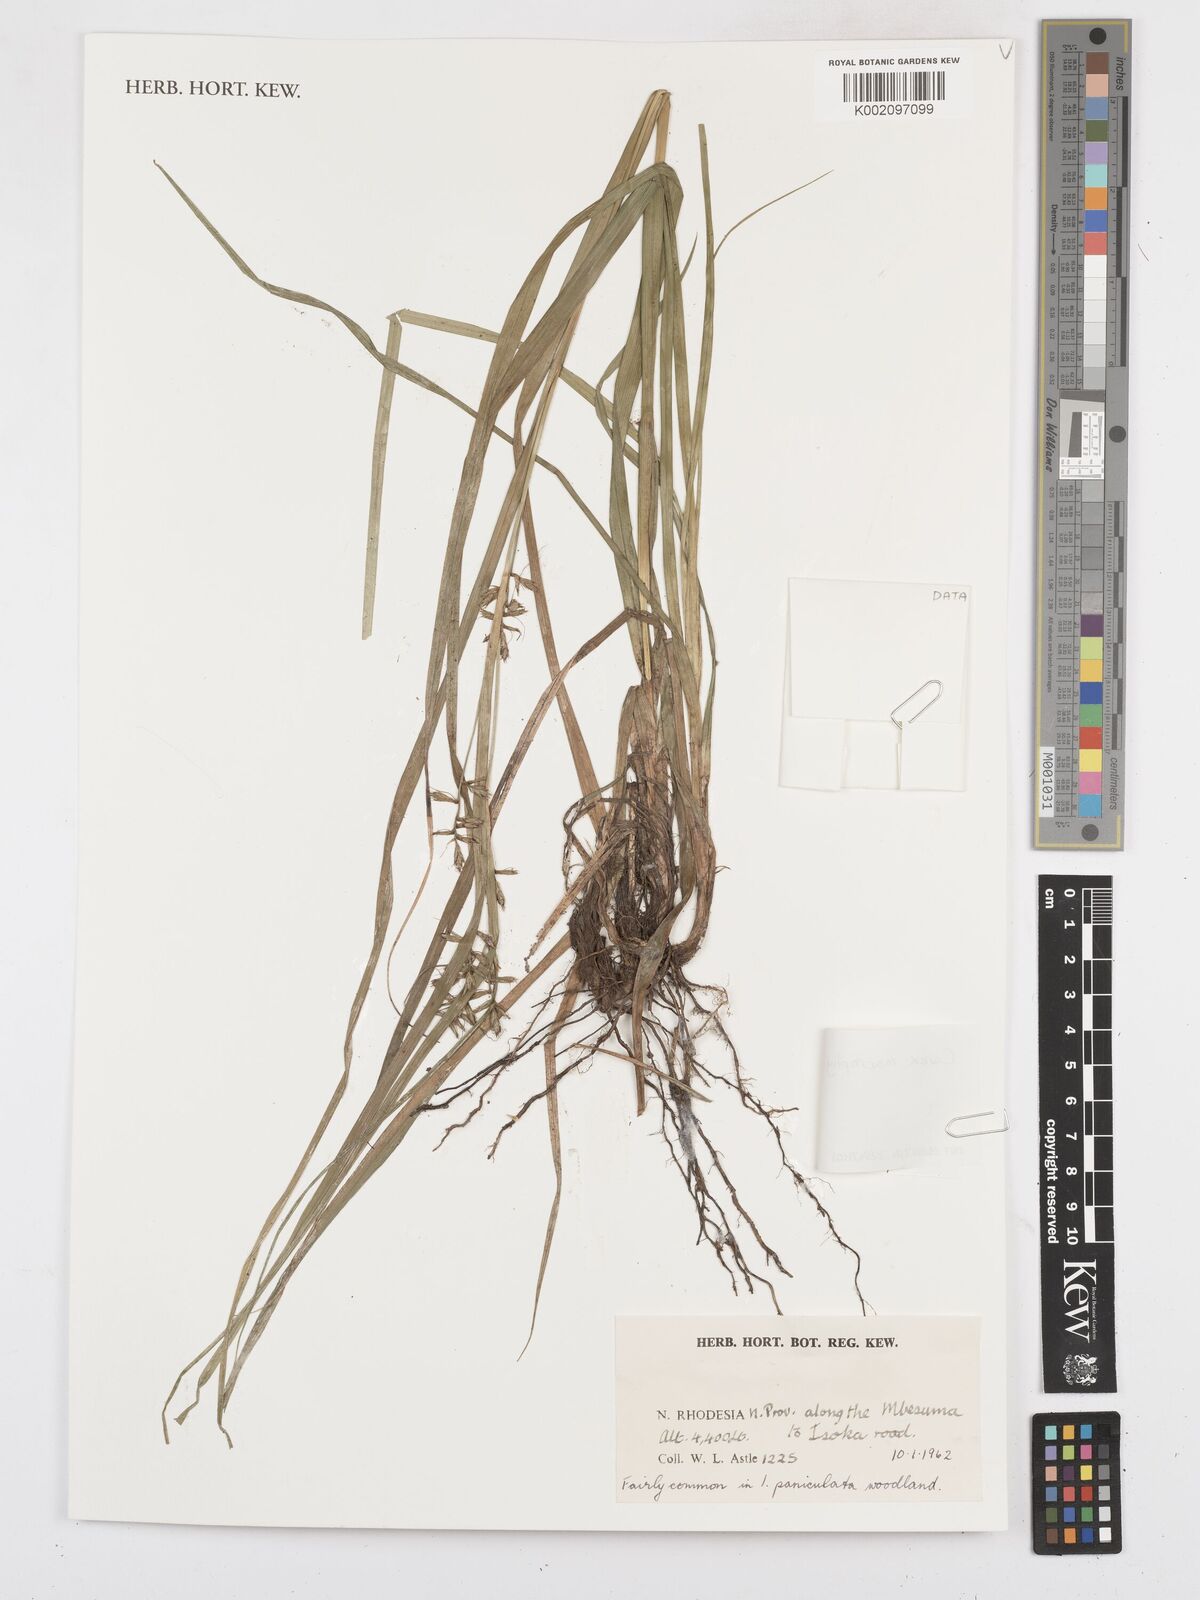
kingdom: Plantae
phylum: Tracheophyta
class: Liliopsida
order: Poales
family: Cyperaceae
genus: Carex
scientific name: Carex macrophyllidion
